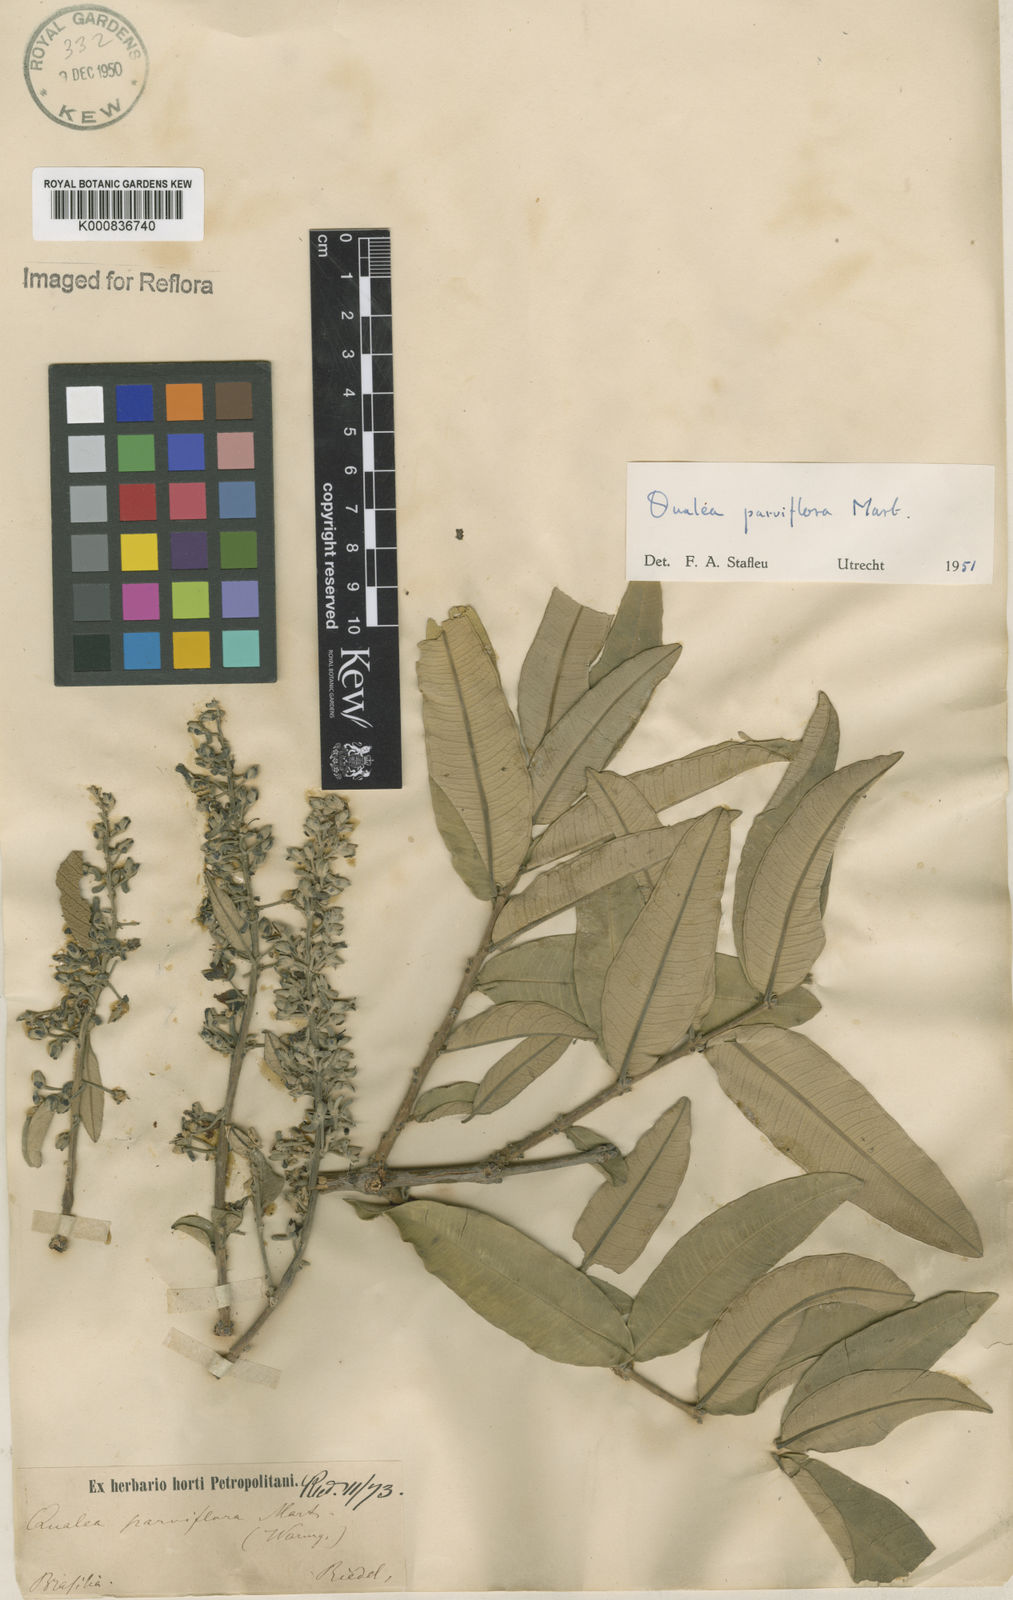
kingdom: Plantae
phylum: Tracheophyta
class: Magnoliopsida
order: Myrtales
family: Vochysiaceae
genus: Qualea
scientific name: Qualea parviflora
